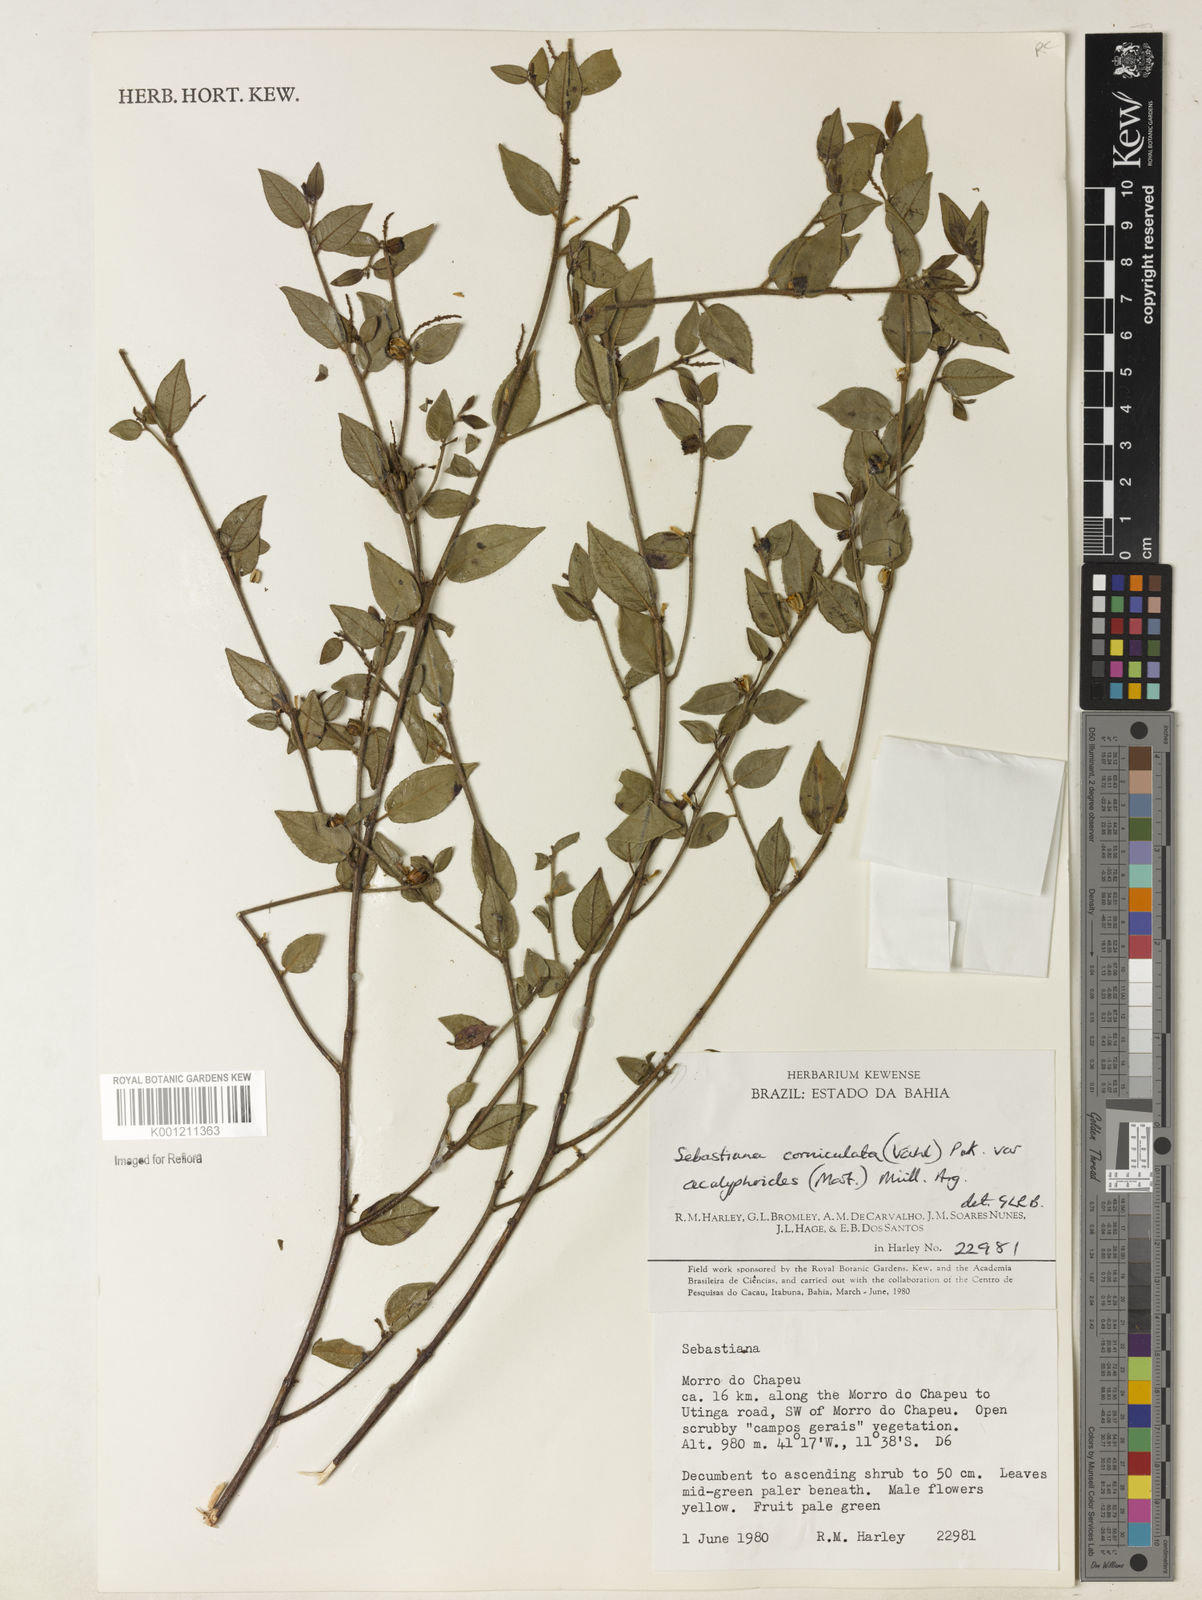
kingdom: Plantae
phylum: Tracheophyta
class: Magnoliopsida
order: Malpighiales
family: Euphorbiaceae
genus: Microstachys
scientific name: Microstachys corniculata
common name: Hato tejas
